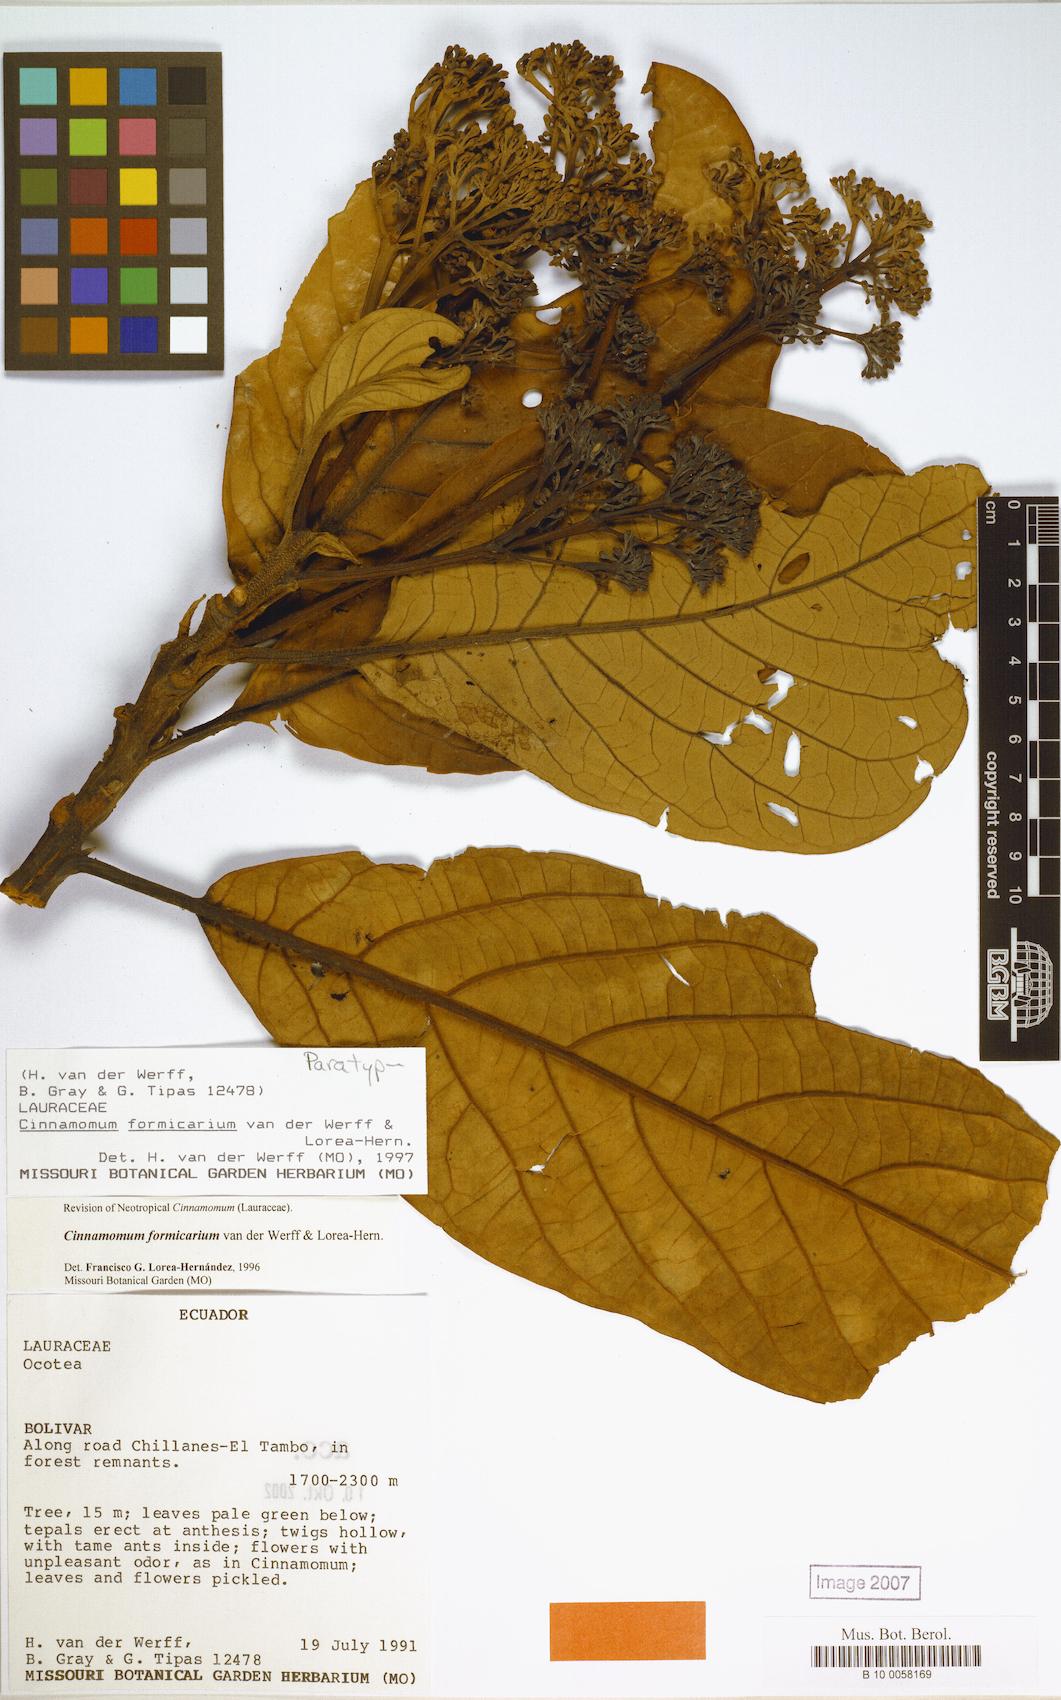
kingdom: Plantae
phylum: Tracheophyta
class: Magnoliopsida
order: Laurales
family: Lauraceae
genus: Aiouea
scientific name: Aiouea formicaria
